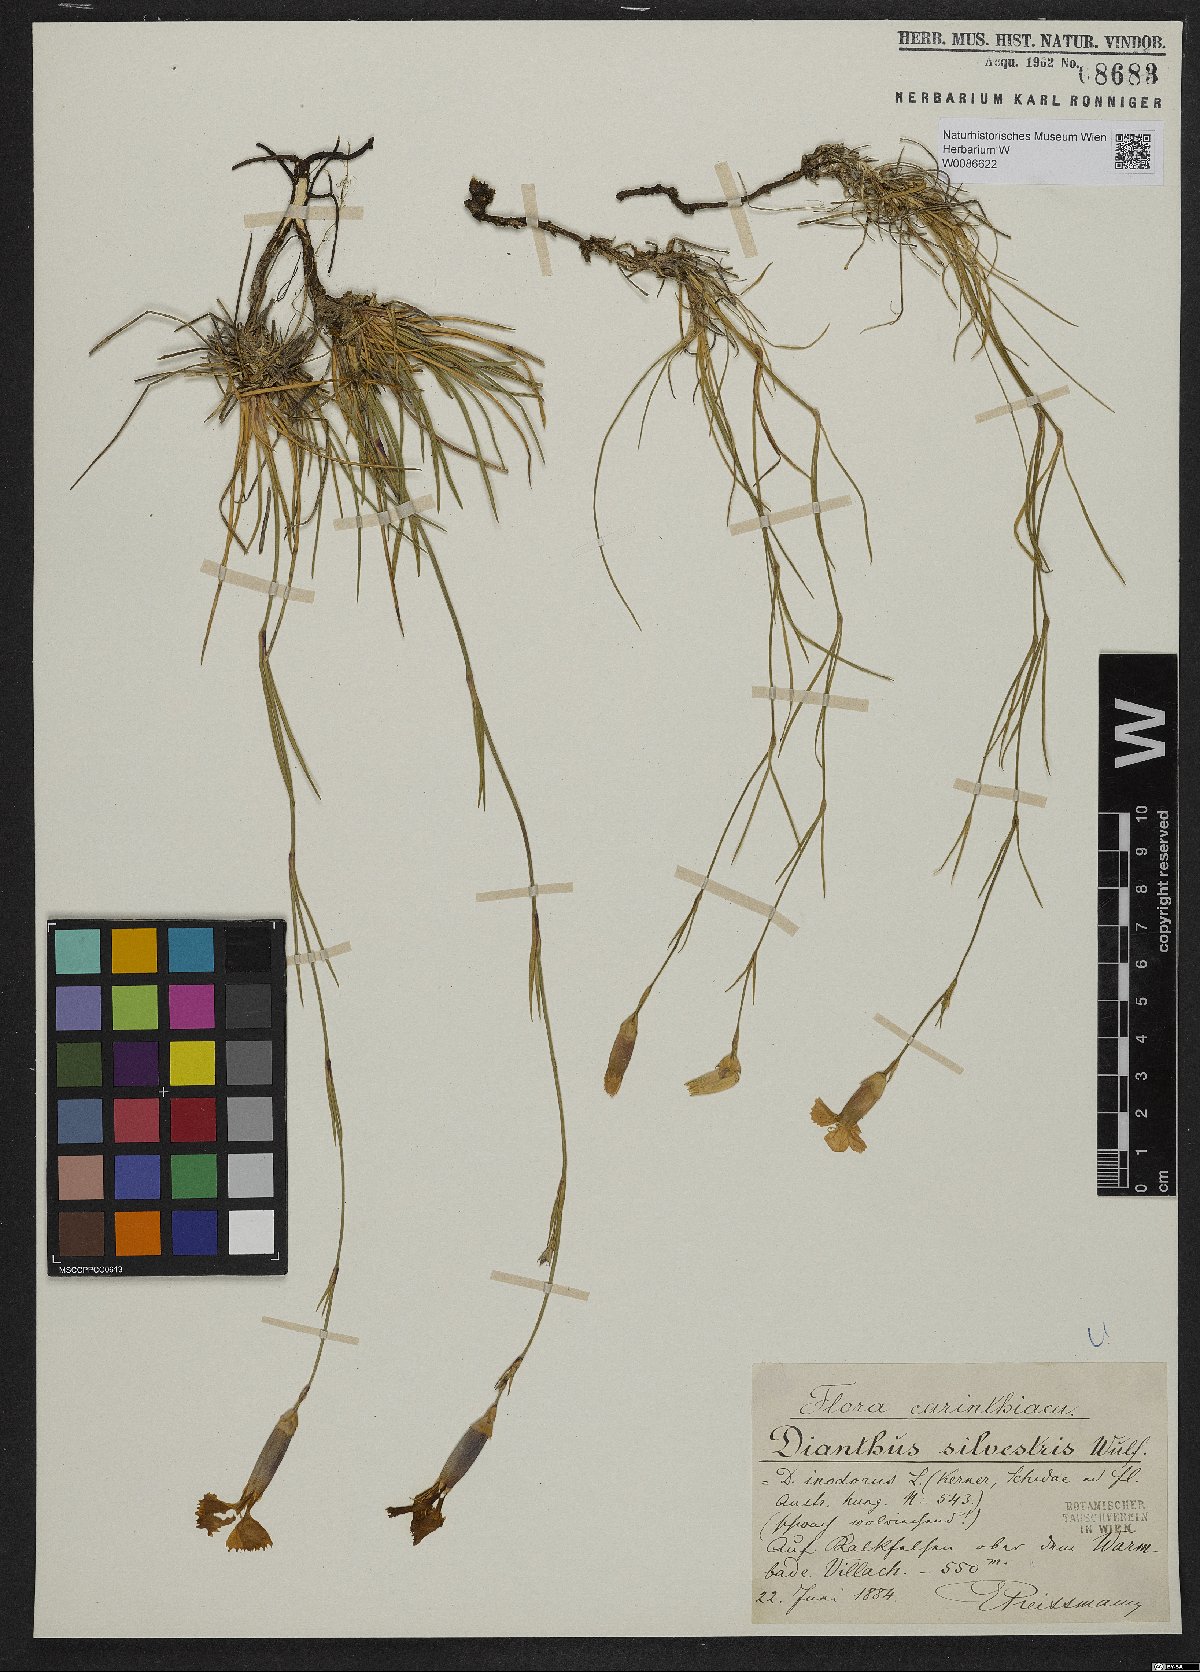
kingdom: Plantae
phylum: Tracheophyta
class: Magnoliopsida
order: Caryophyllales
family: Caryophyllaceae
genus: Dianthus
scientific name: Dianthus sylvestris
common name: Wood pink
